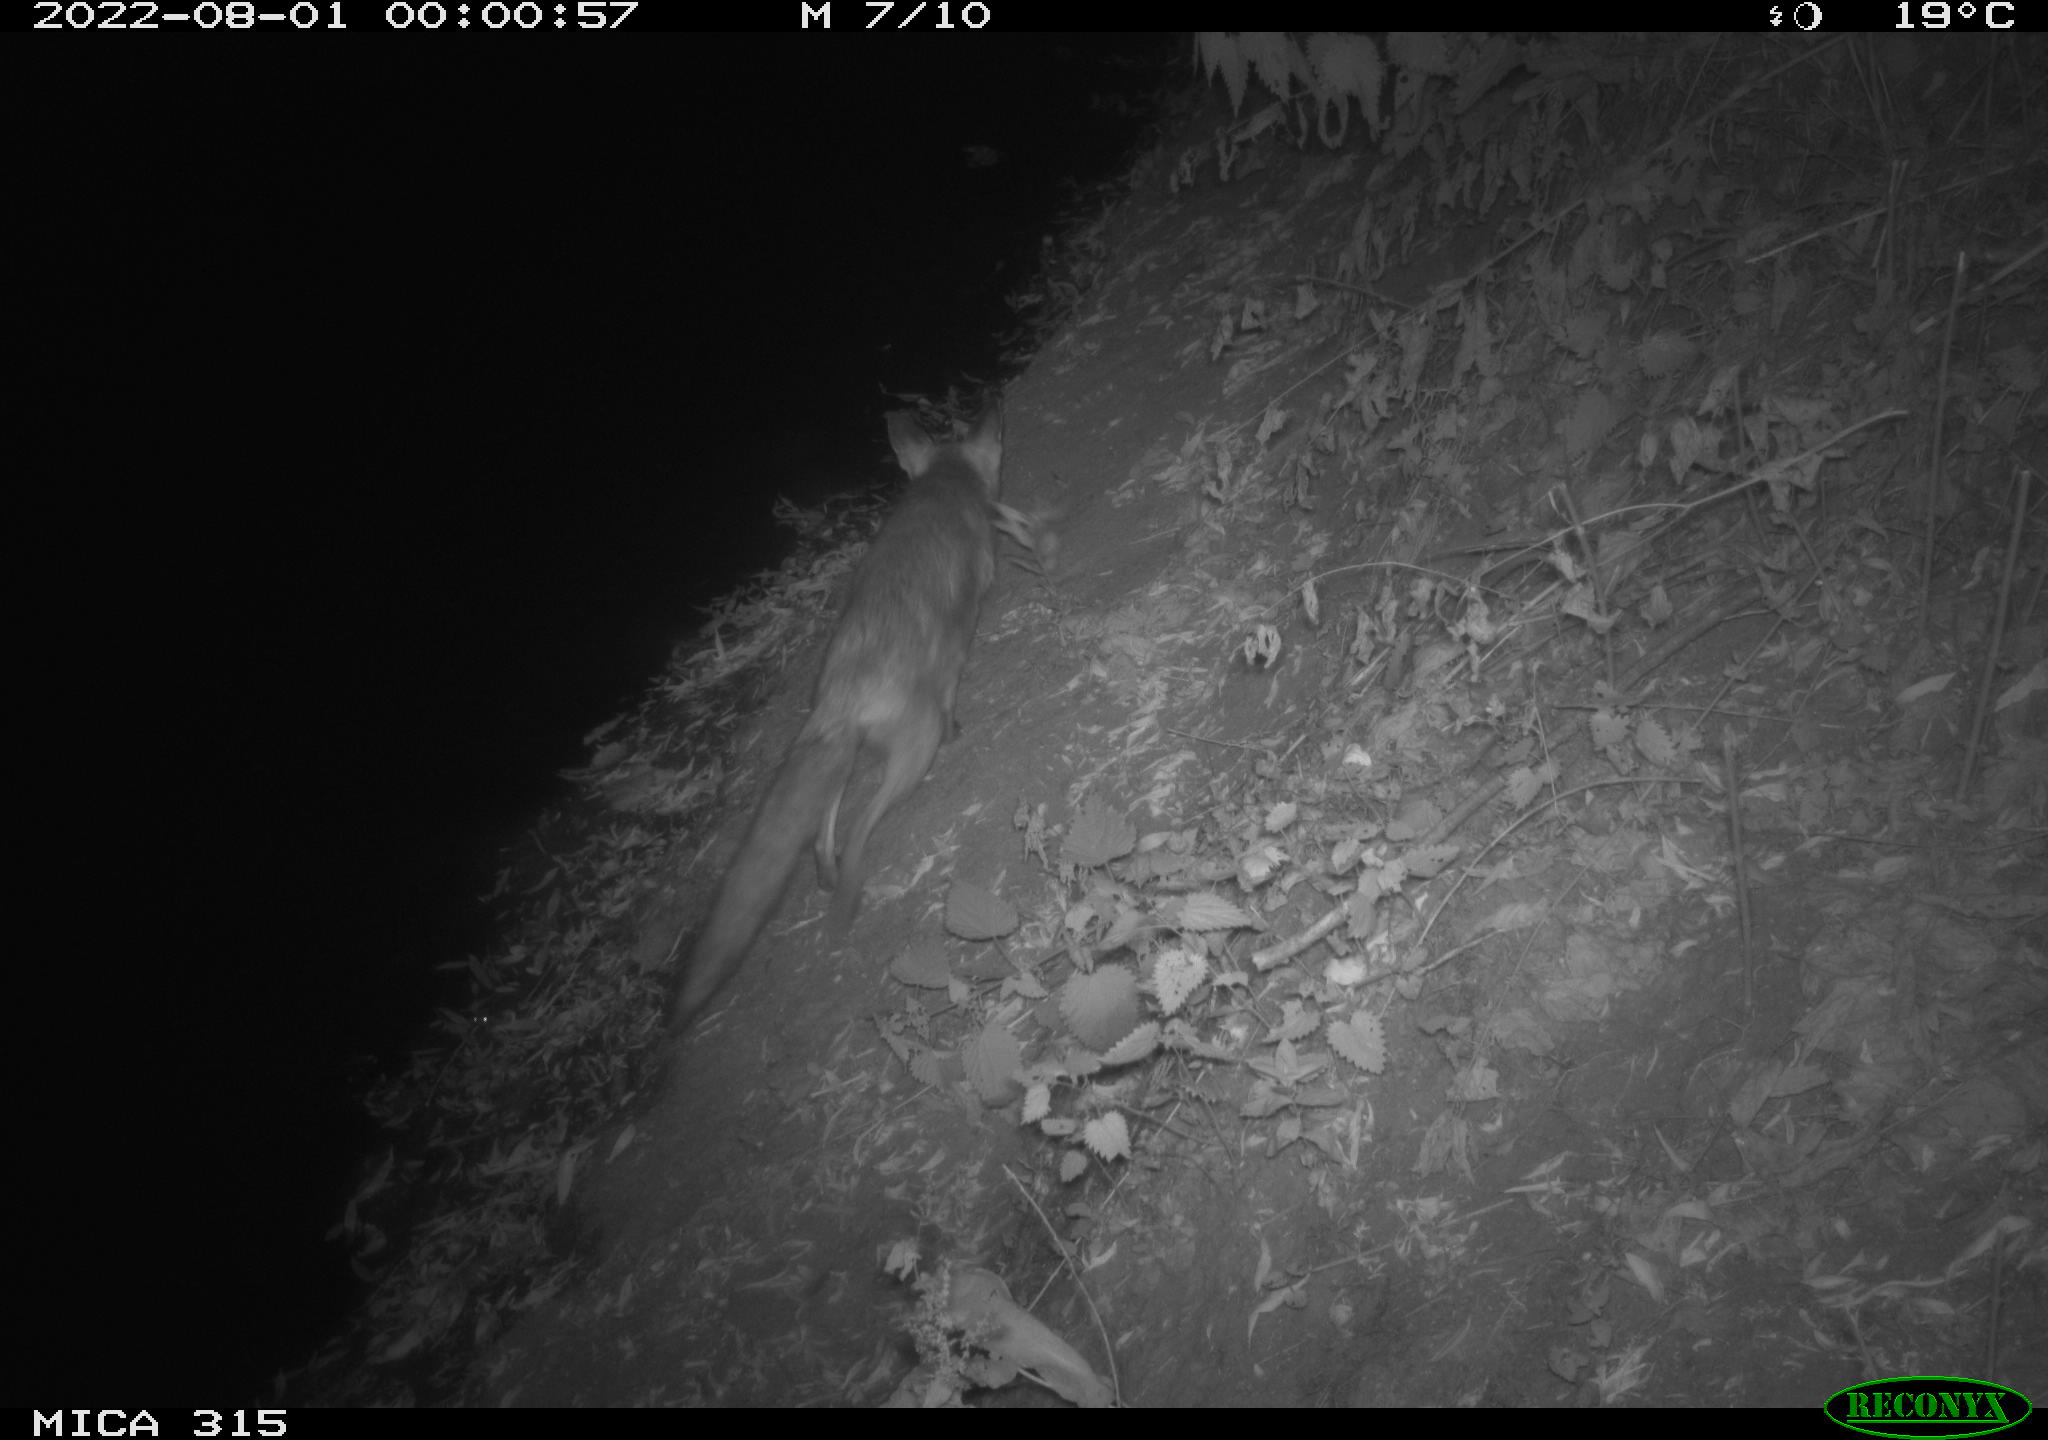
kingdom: Animalia
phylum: Chordata
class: Mammalia
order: Carnivora
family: Canidae
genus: Vulpes
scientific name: Vulpes vulpes
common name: Red fox
